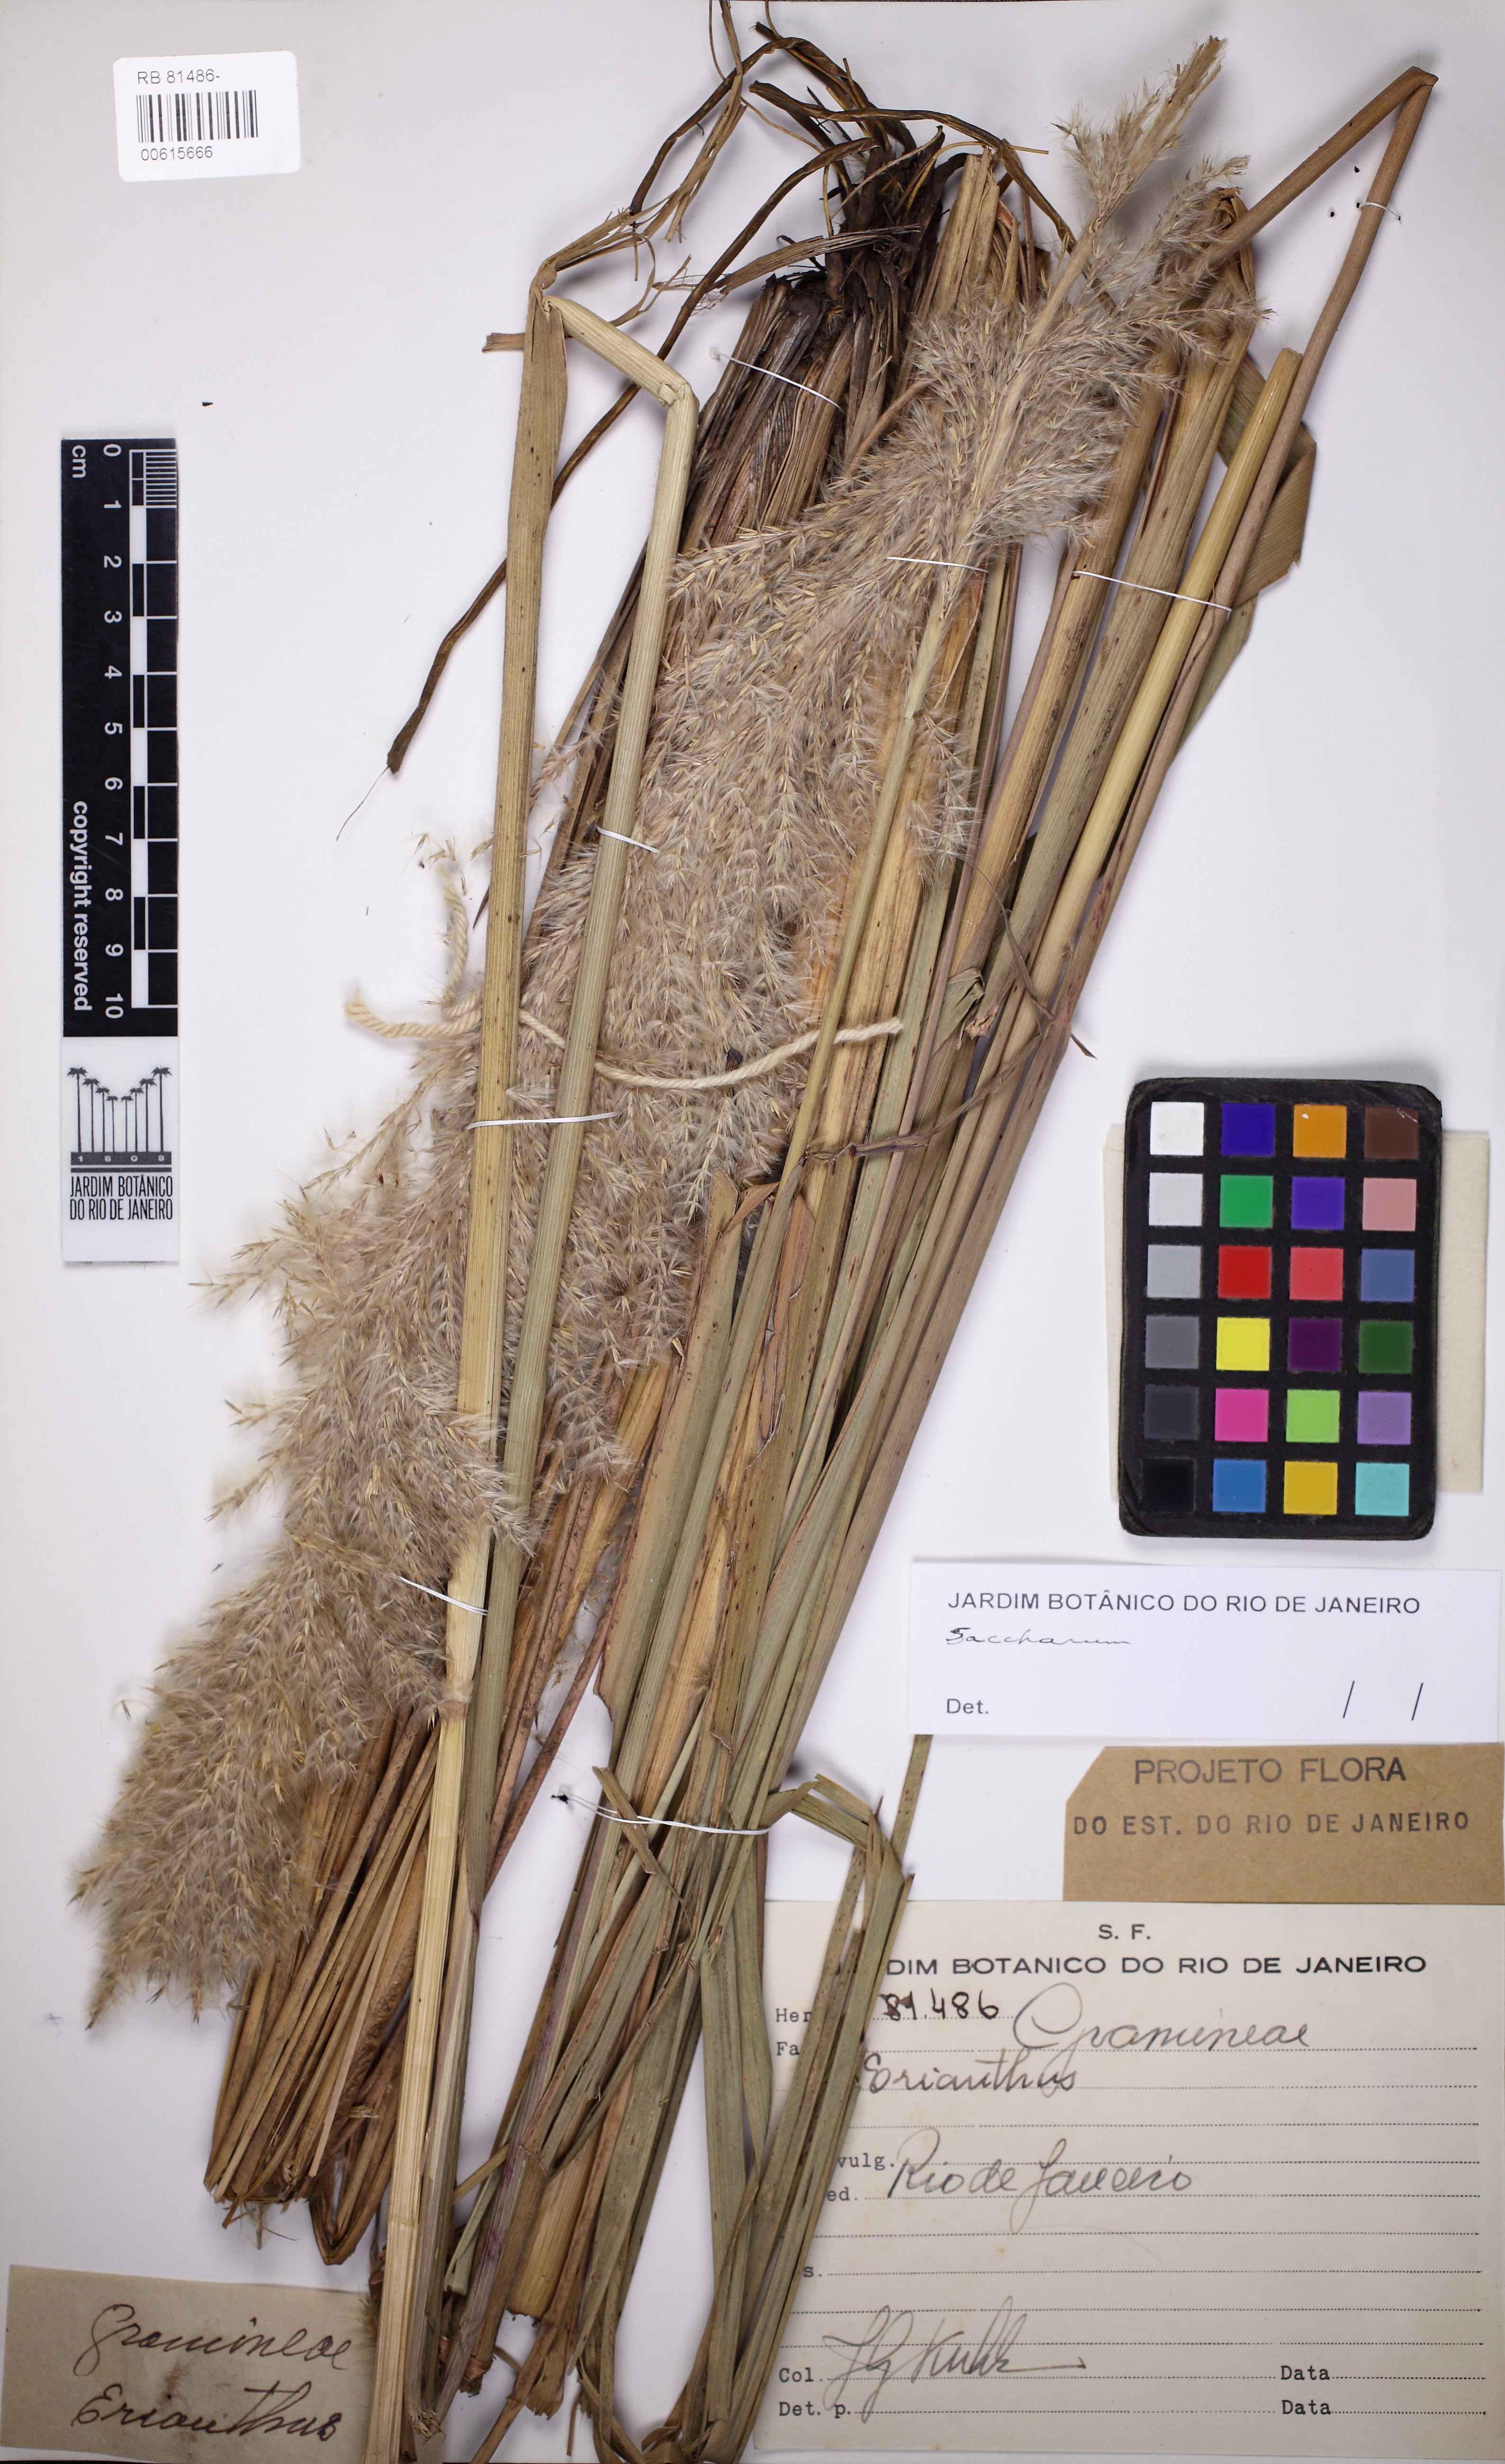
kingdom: Plantae
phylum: Tracheophyta
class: Liliopsida
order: Poales
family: Poaceae
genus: Saccharum
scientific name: Saccharum
